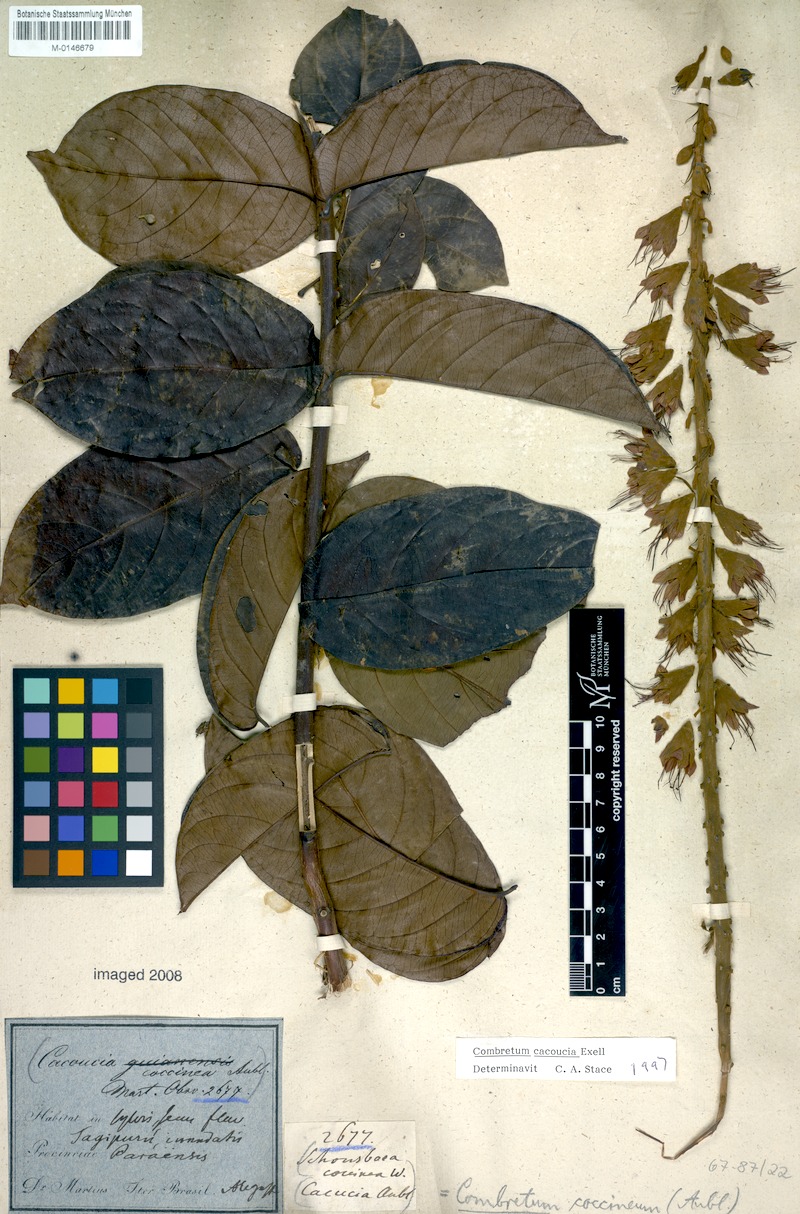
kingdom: Plantae
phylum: Tracheophyta
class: Magnoliopsida
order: Myrtales
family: Combretaceae
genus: Combretum
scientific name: Combretum cacoucia
